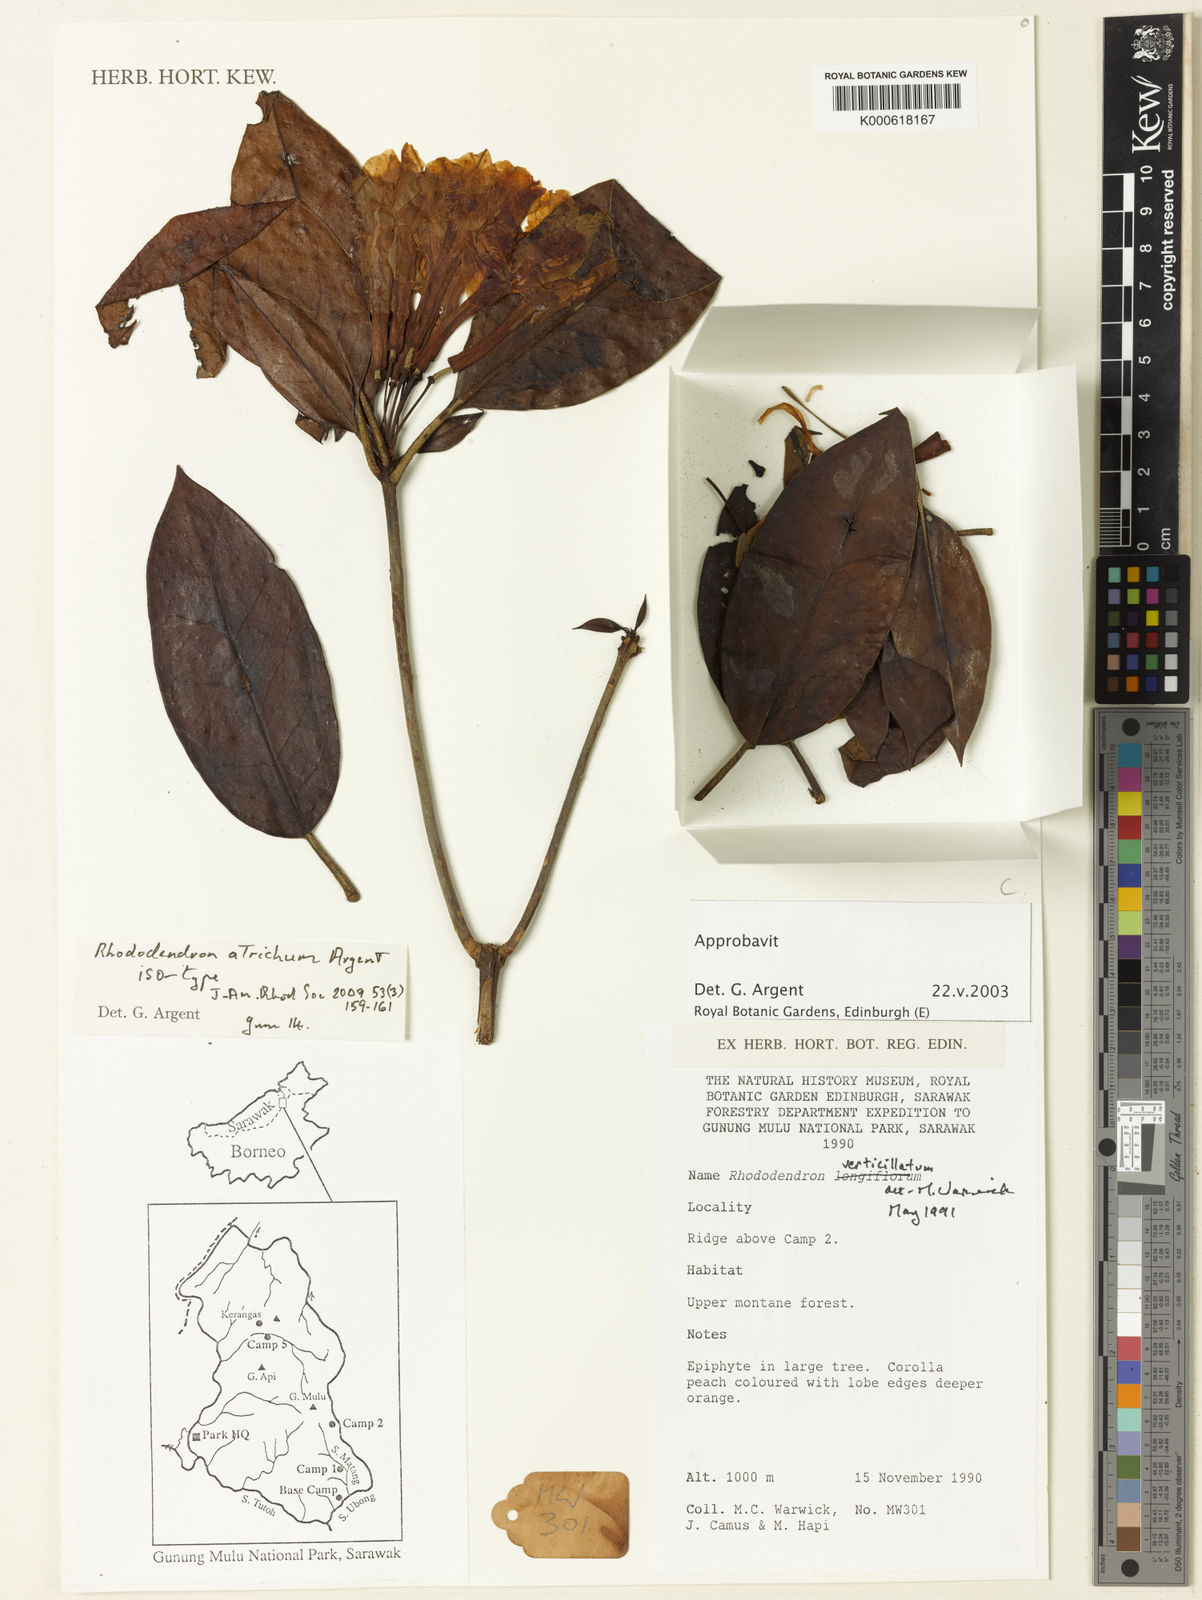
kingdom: Plantae
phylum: Tracheophyta
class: Magnoliopsida
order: Ericales
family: Ericaceae
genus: Rhododendron
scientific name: Rhododendron atrichum
